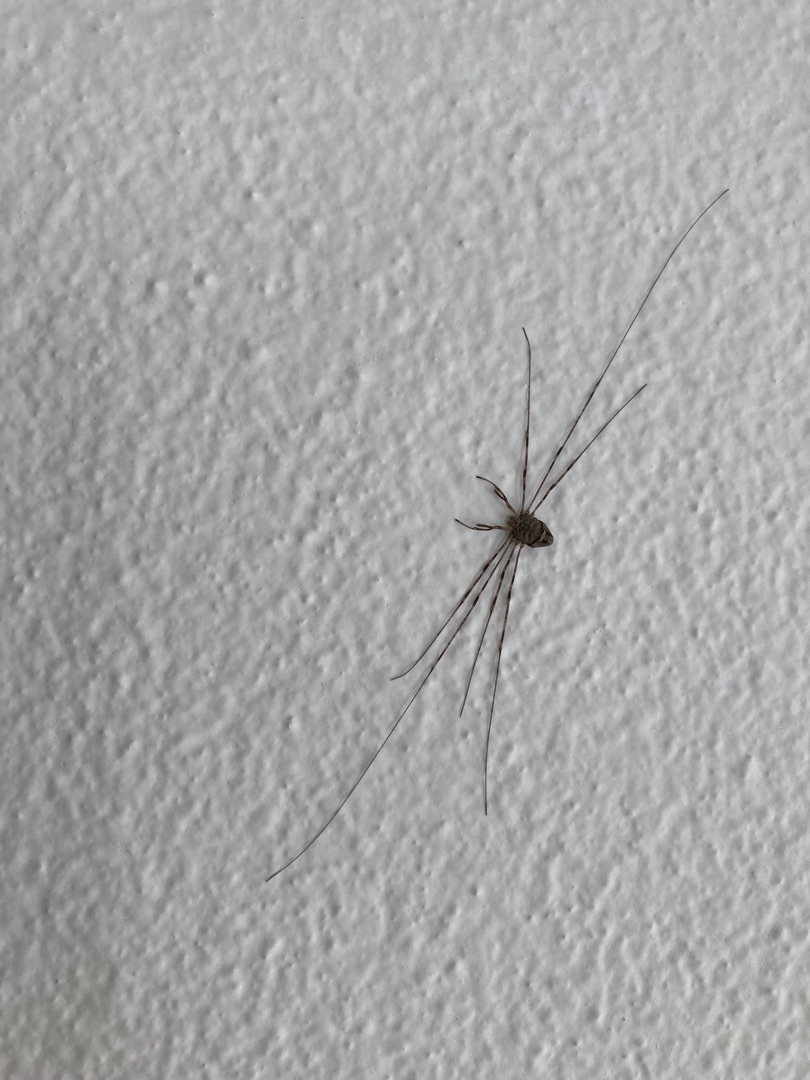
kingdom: Animalia
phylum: Arthropoda
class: Arachnida
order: Opiliones
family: Phalangiidae
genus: Dicranopalpus
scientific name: Dicranopalpus ramosus
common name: Gaffelmejer
